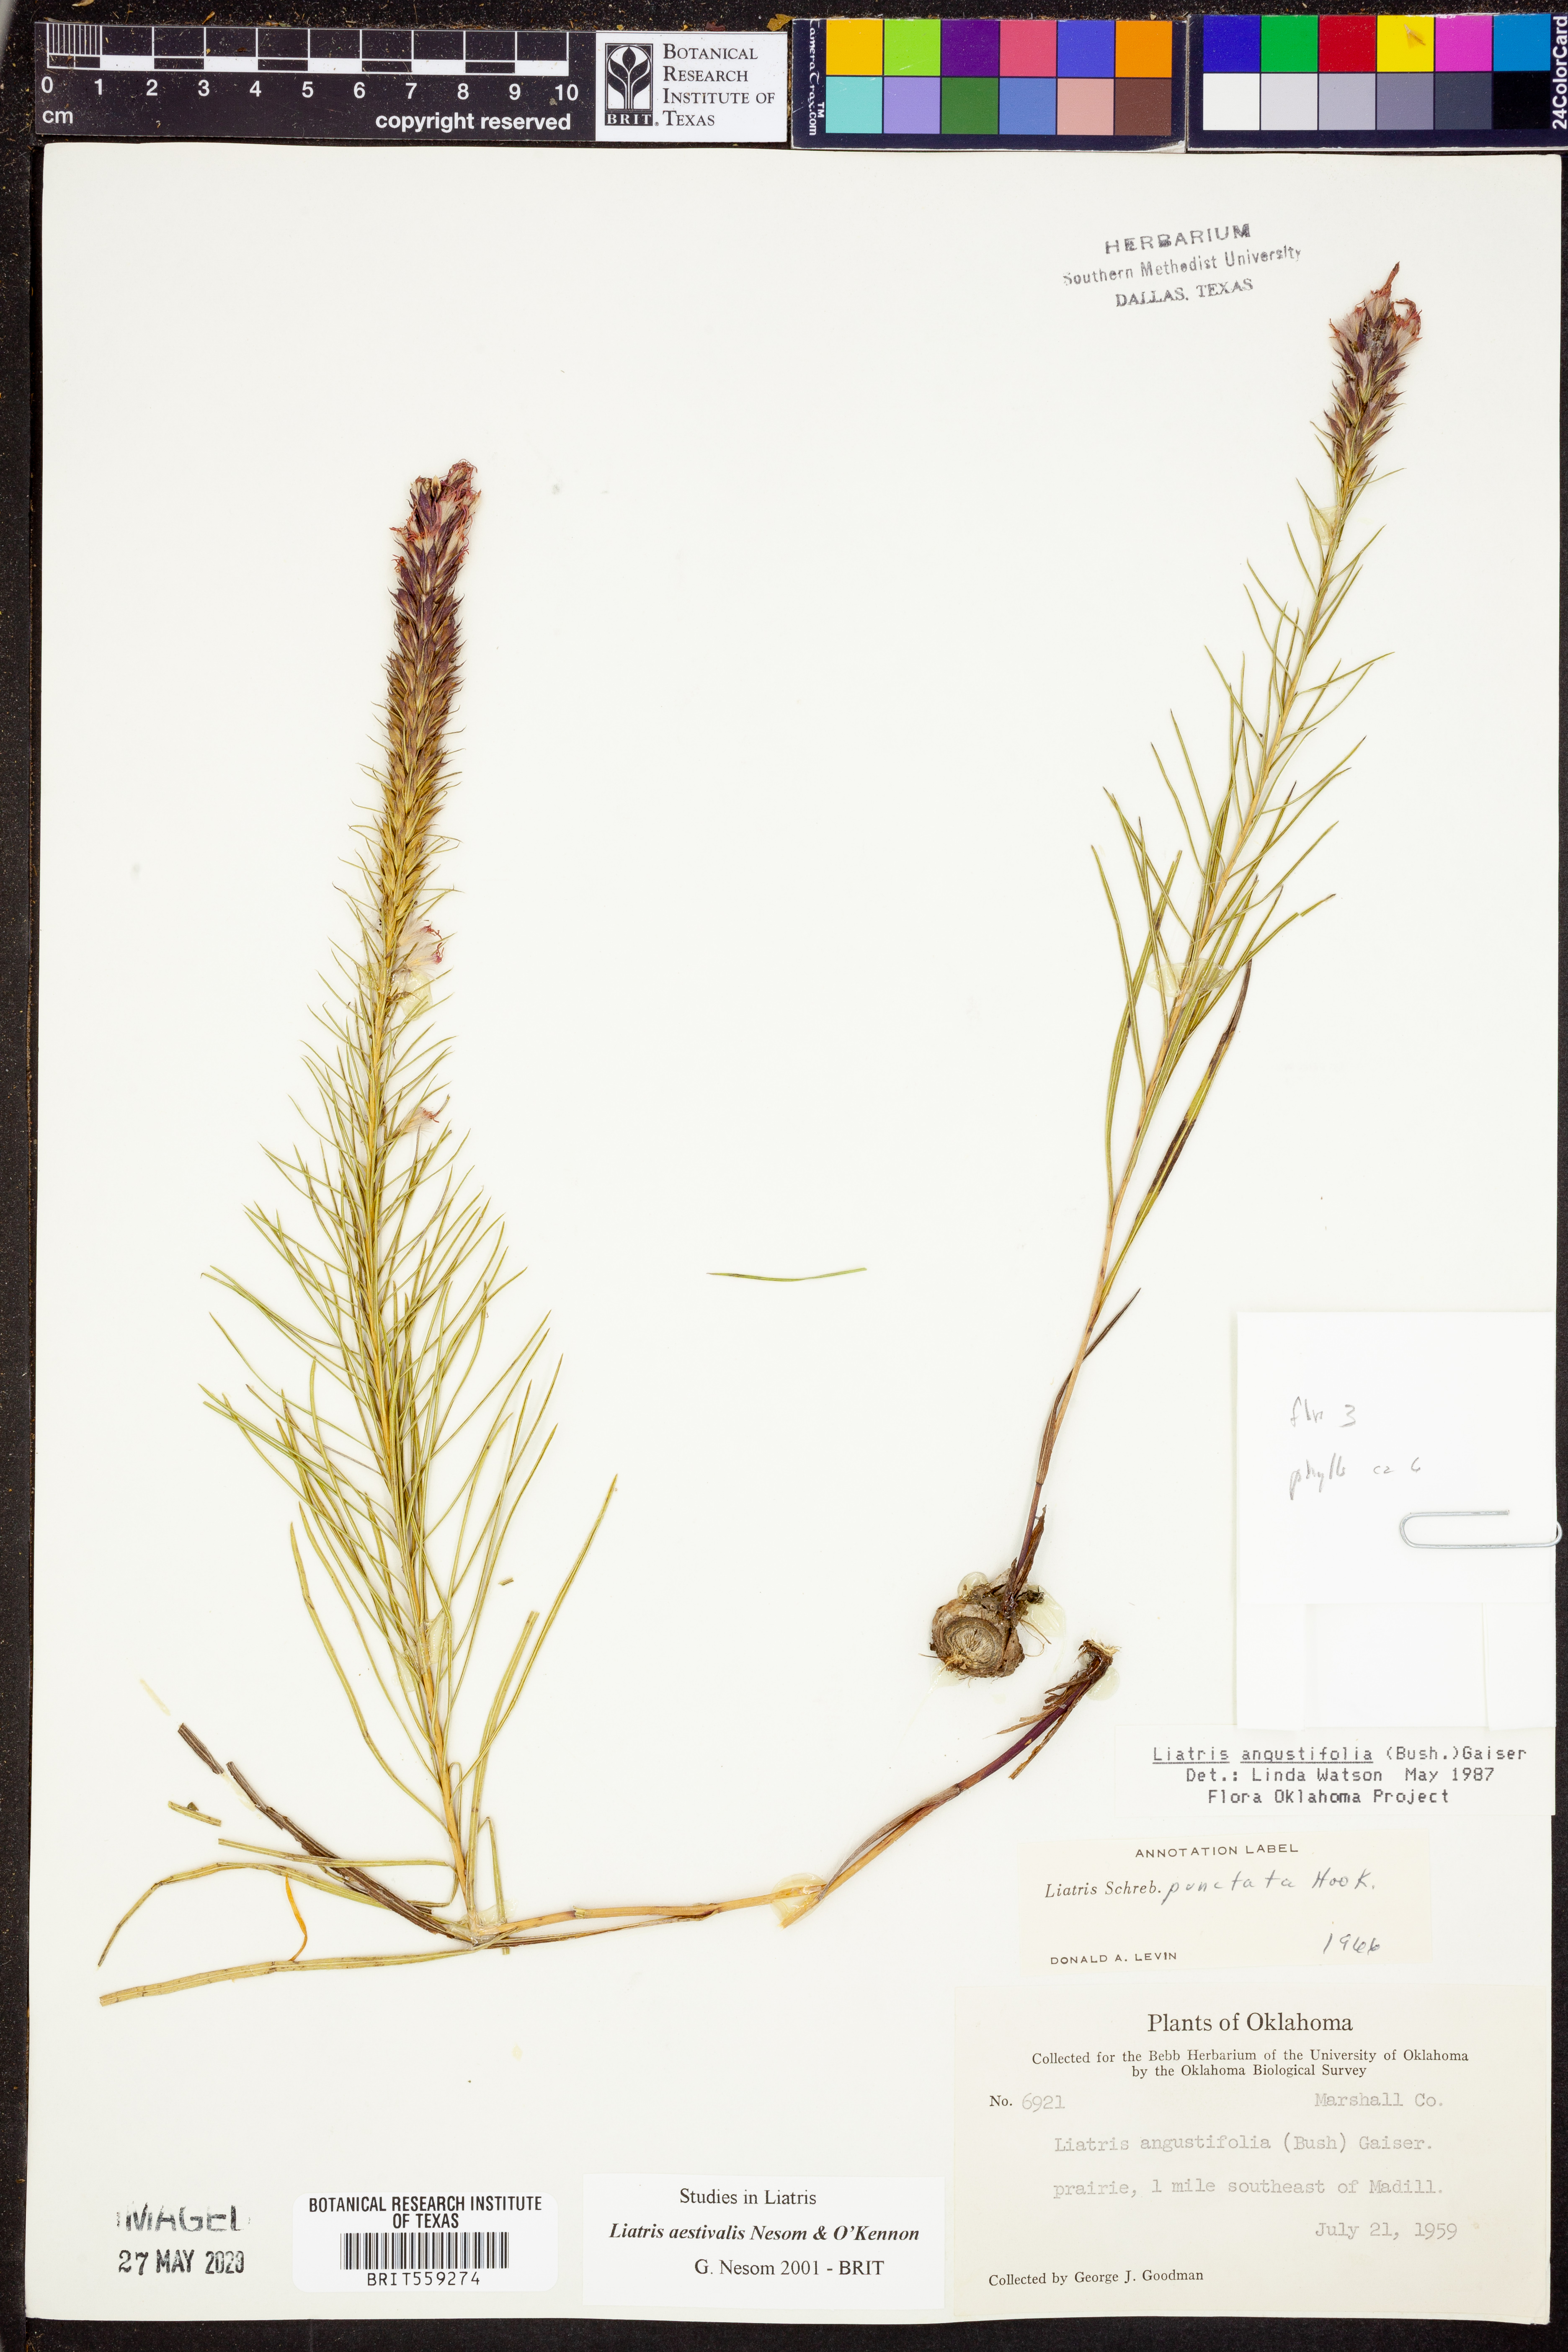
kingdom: Plantae
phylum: Tracheophyta
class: Magnoliopsida
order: Asterales
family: Asteraceae
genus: Liatris
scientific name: Liatris aestivalis
